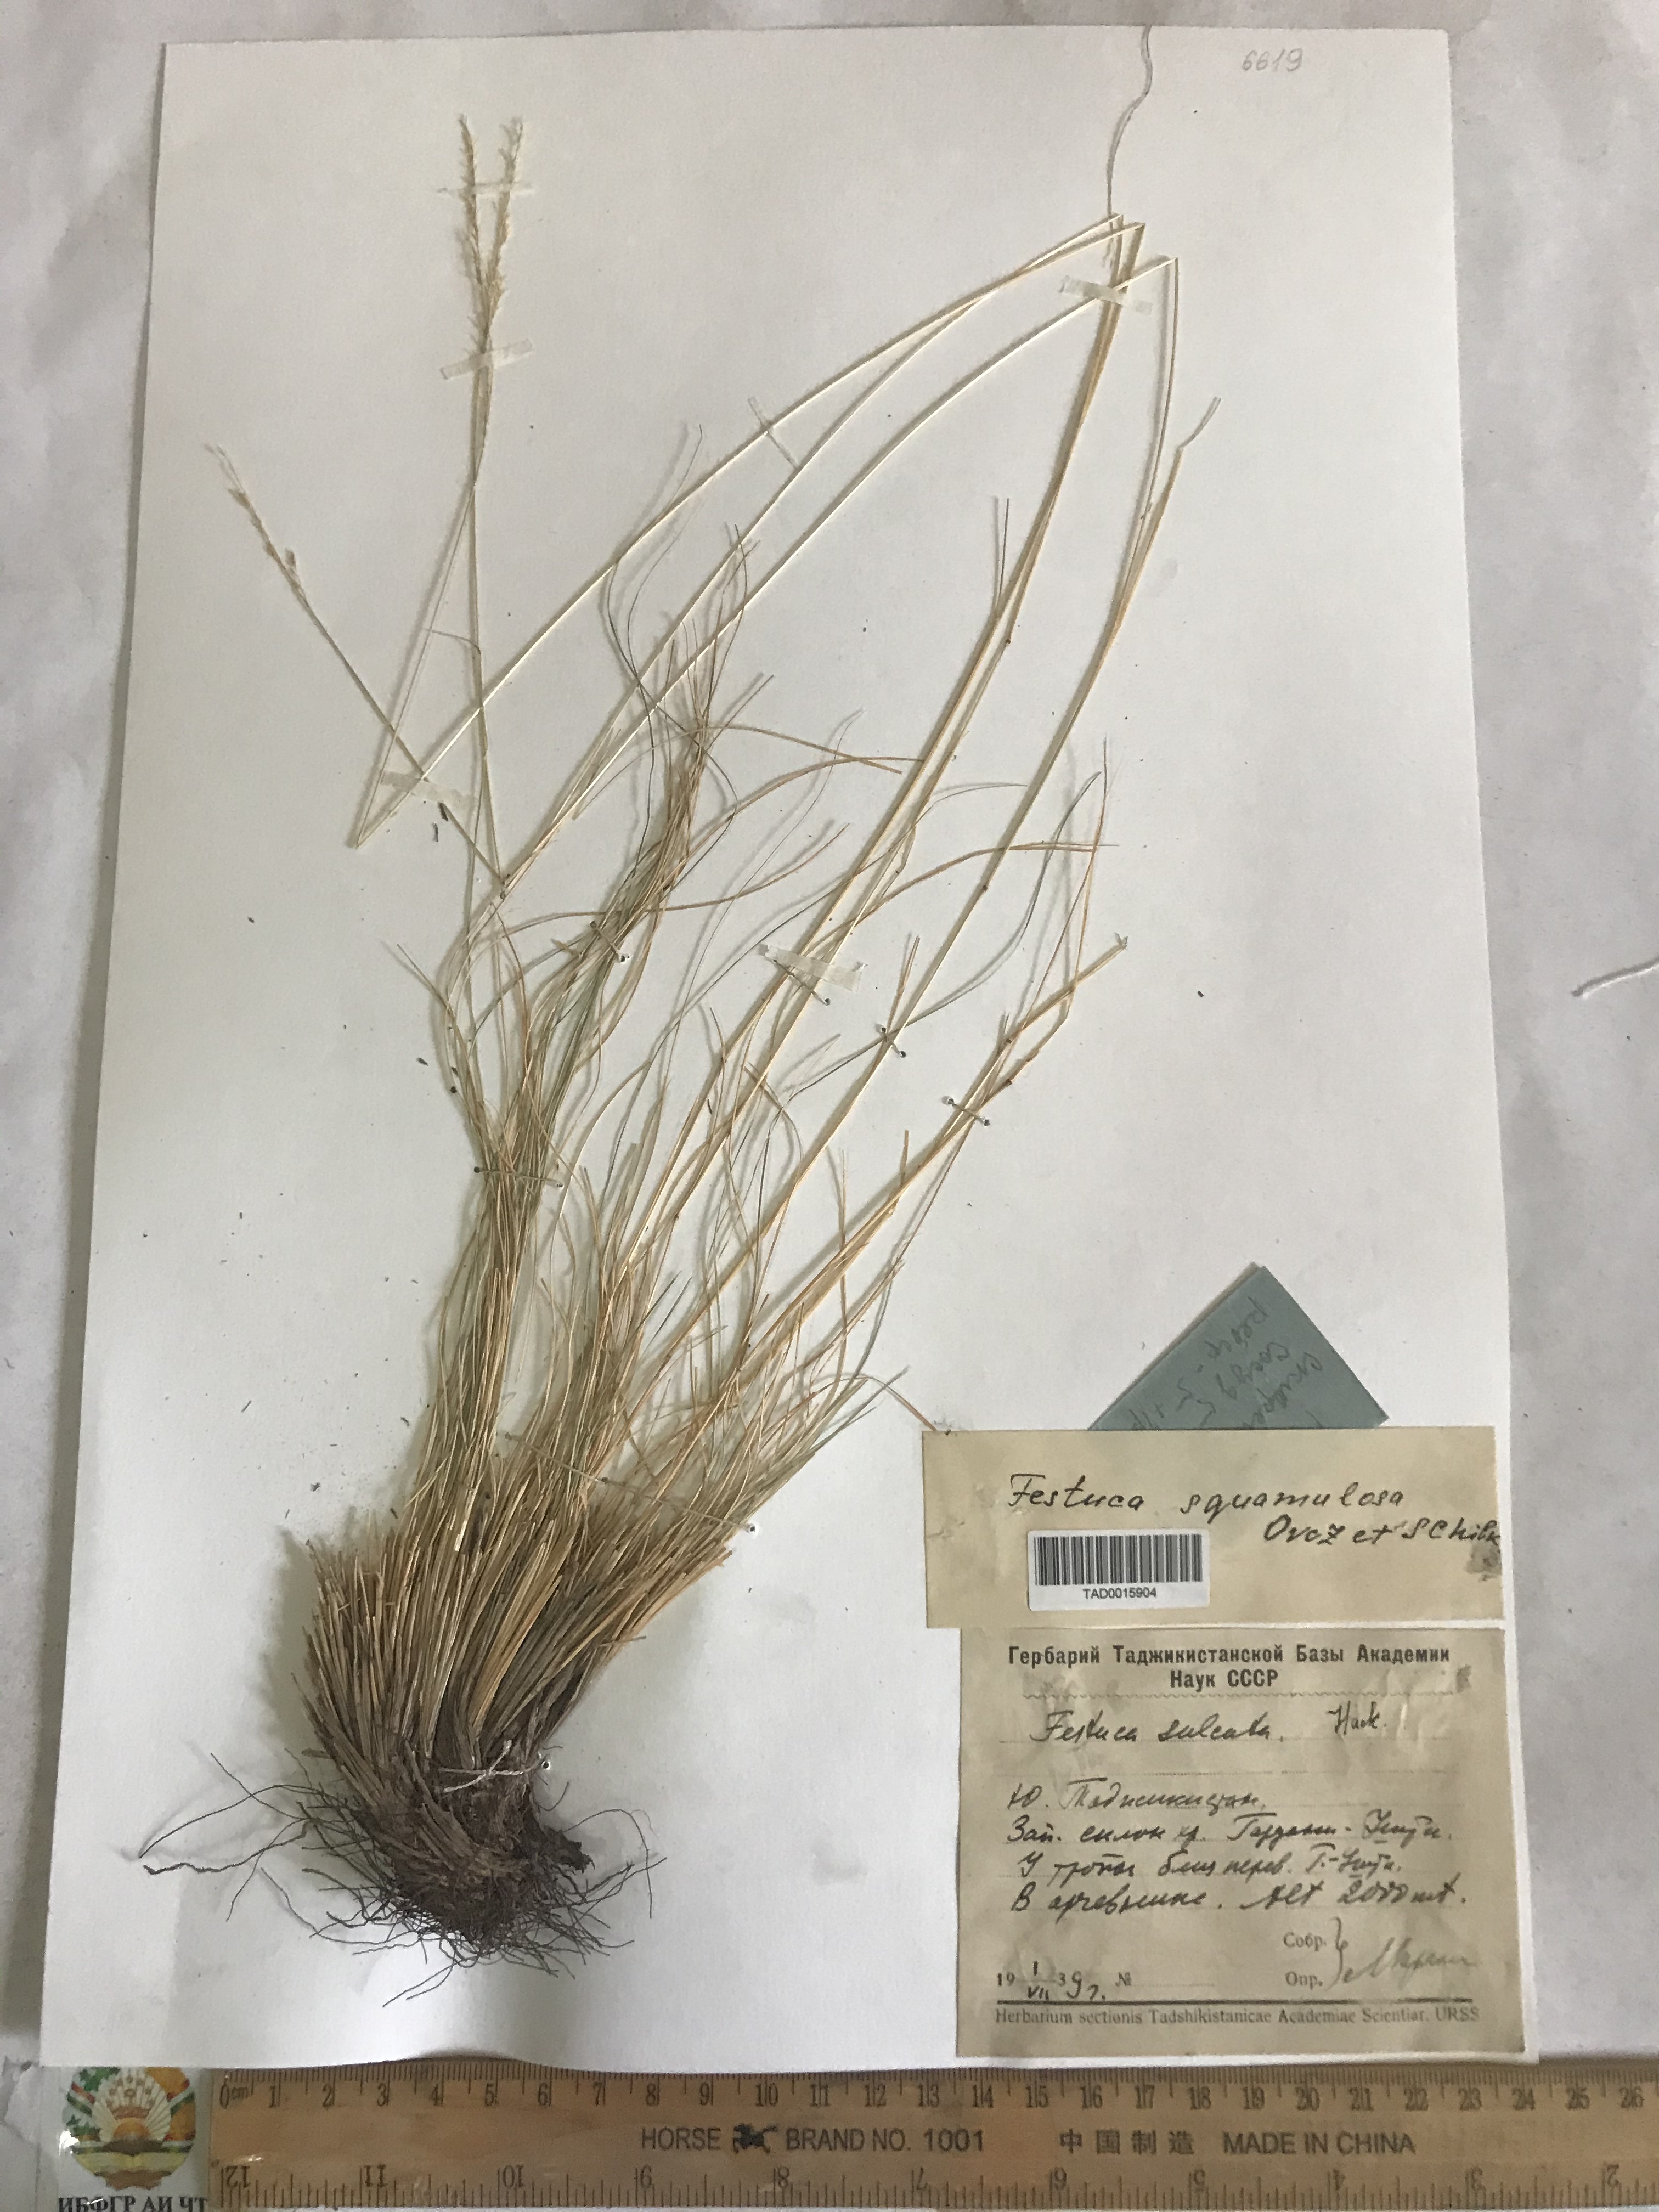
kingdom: Plantae
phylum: Tracheophyta
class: Liliopsida
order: Poales
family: Poaceae
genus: Festuca
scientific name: Festuca valesiaca
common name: Volga fescue
